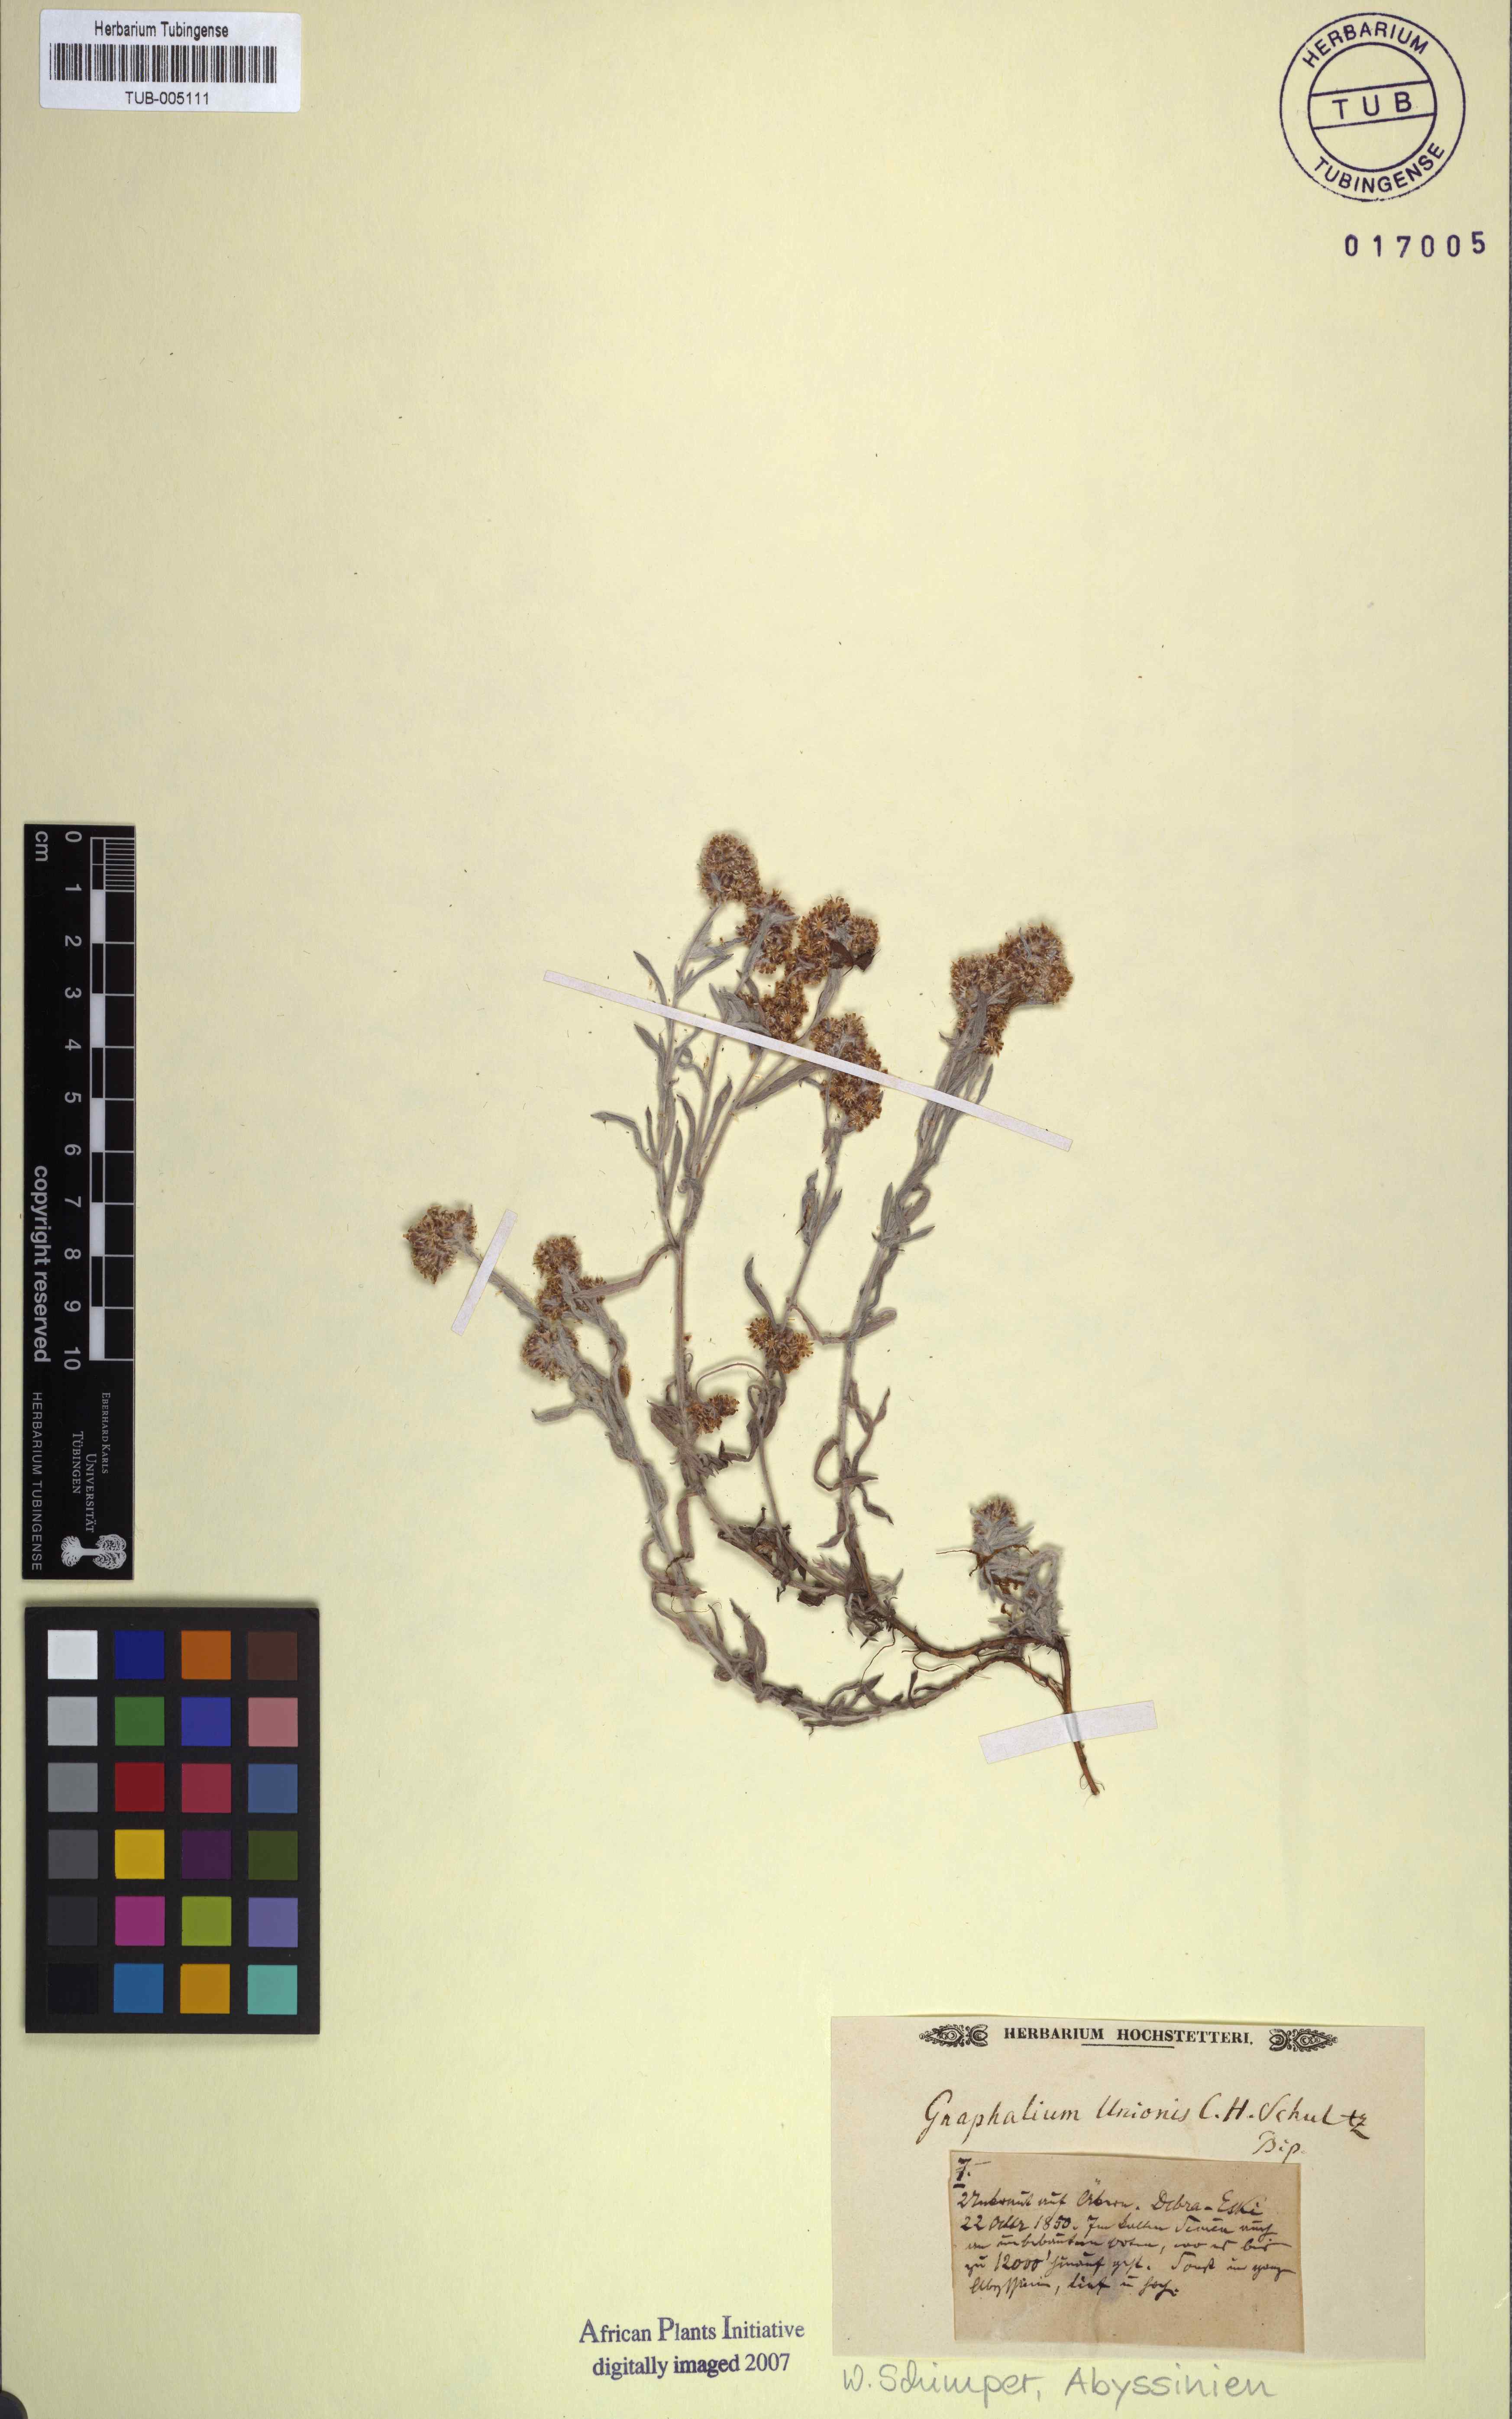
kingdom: Plantae
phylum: Tracheophyta
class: Magnoliopsida
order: Asterales
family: Asteraceae
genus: Gnaphalium
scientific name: Gnaphalium unionis
